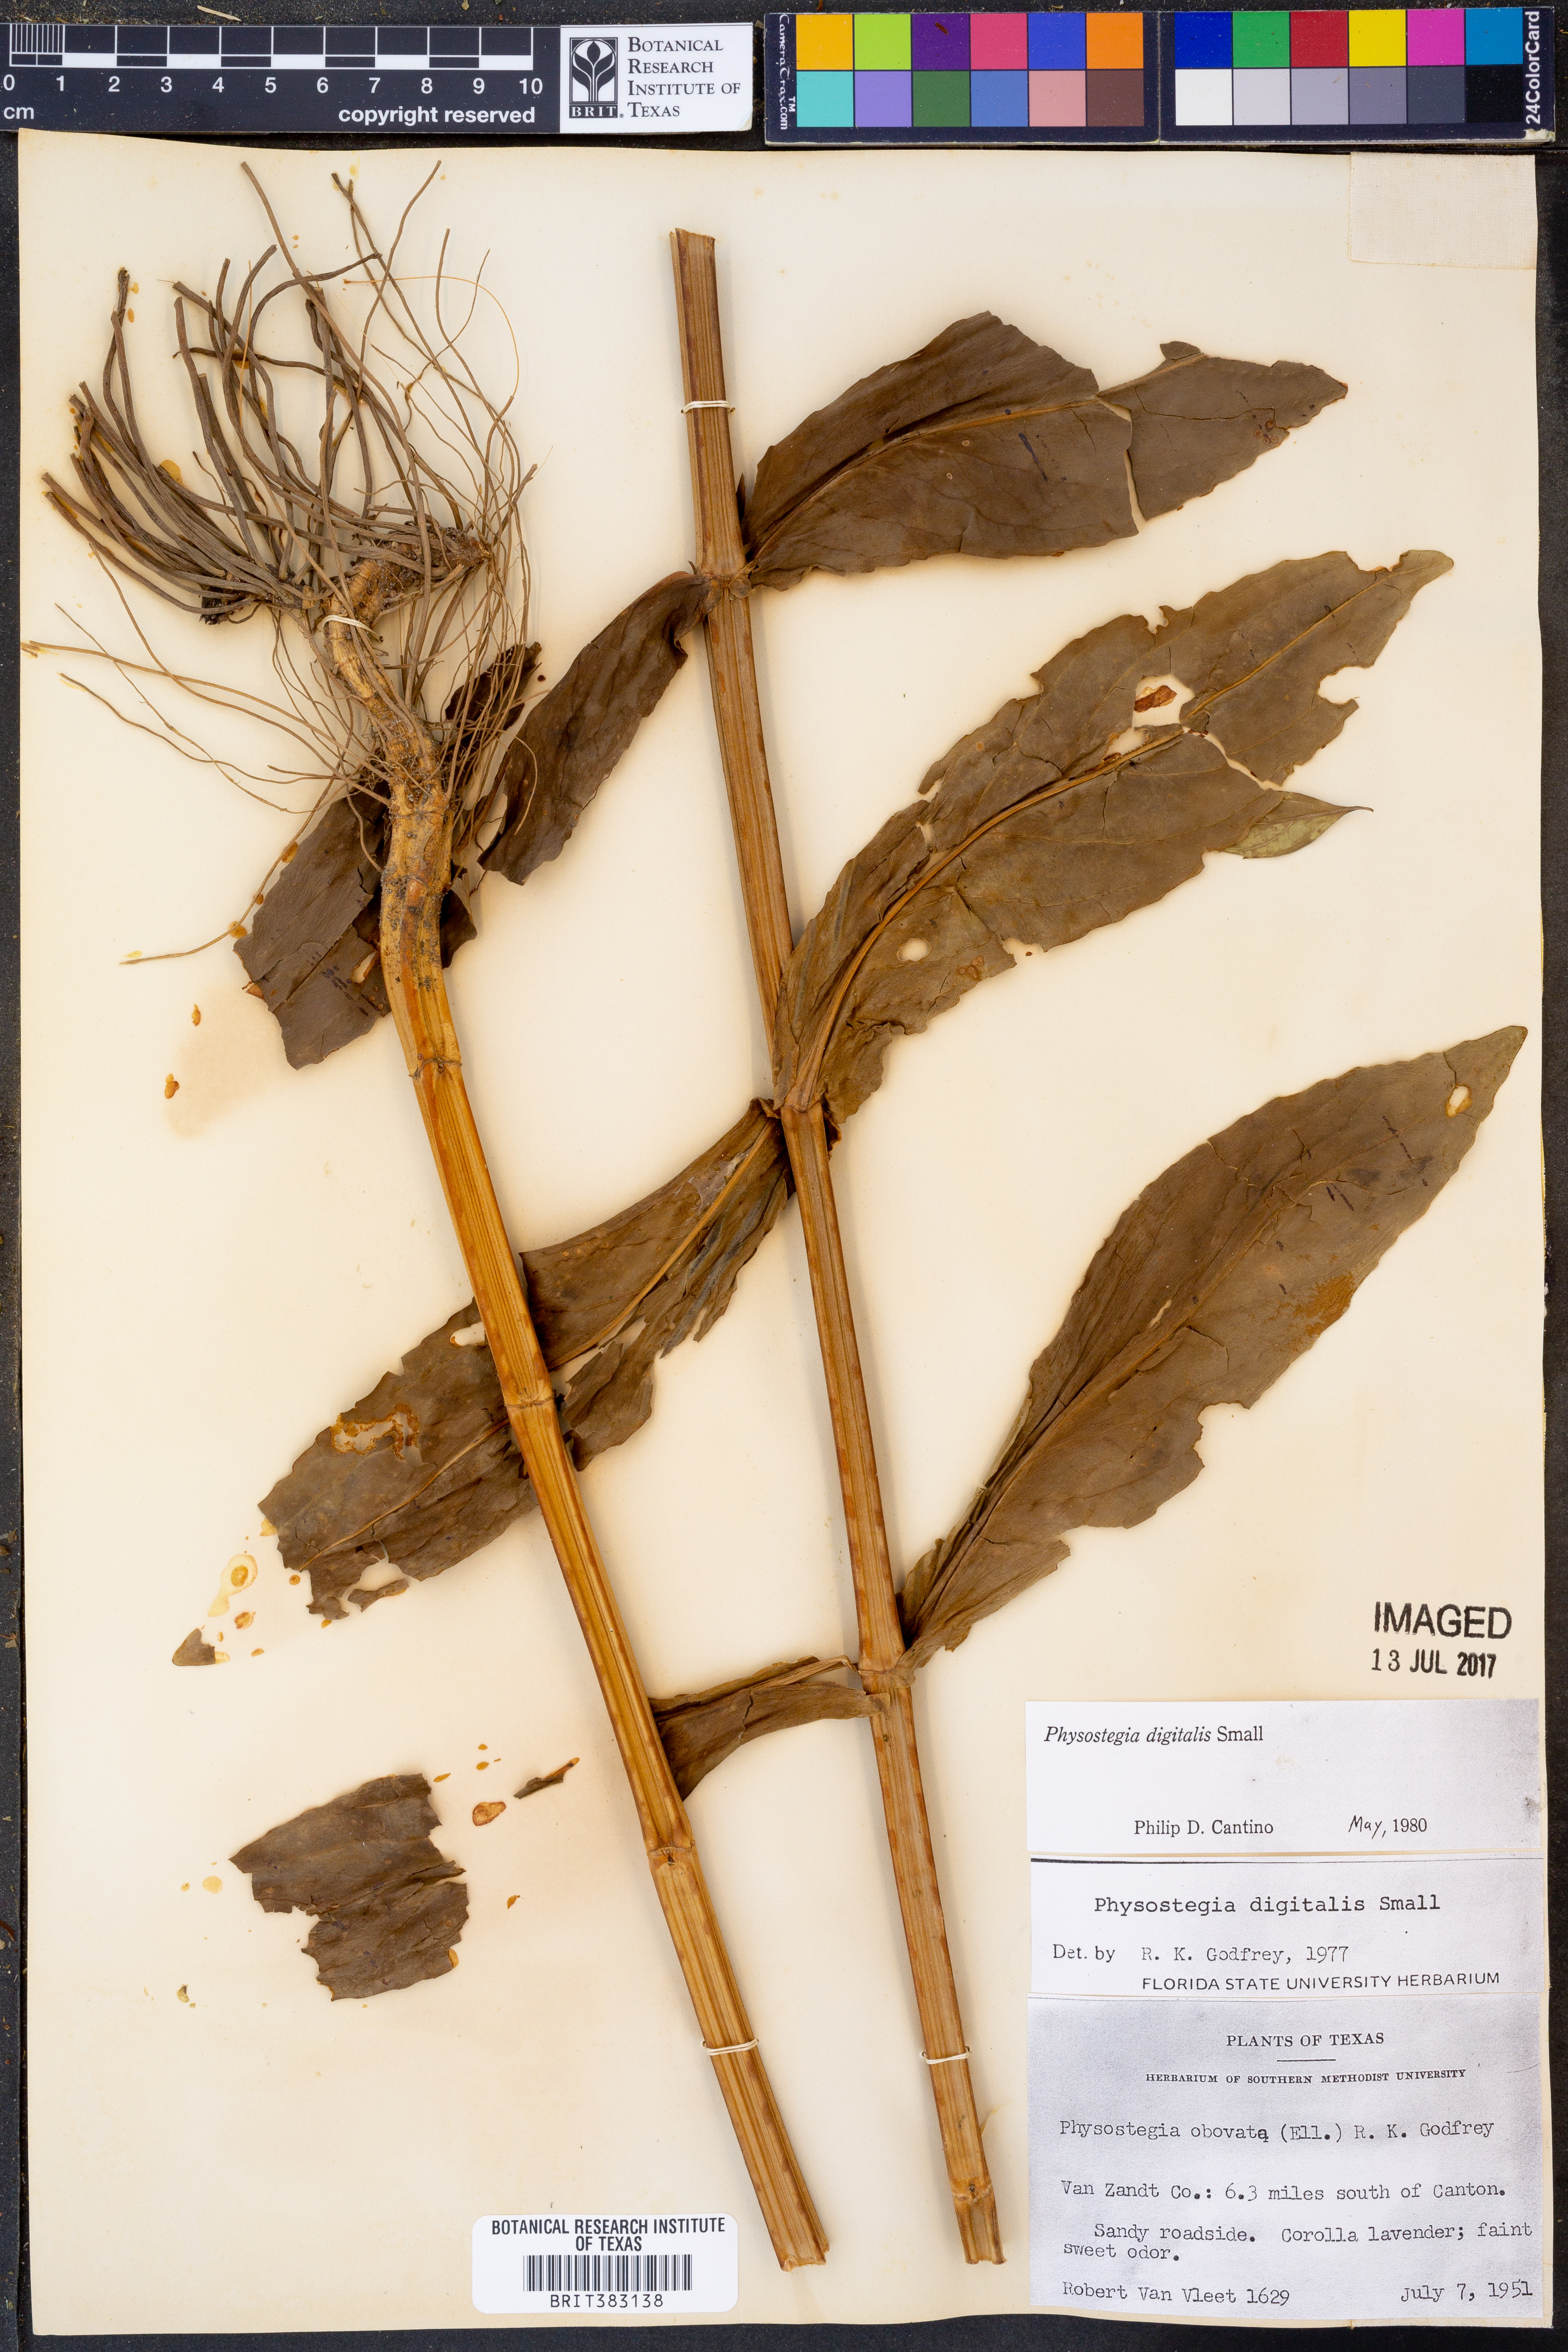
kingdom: Plantae
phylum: Tracheophyta
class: Magnoliopsida
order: Lamiales
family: Lamiaceae
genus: Physostegia
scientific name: Physostegia digitalis
